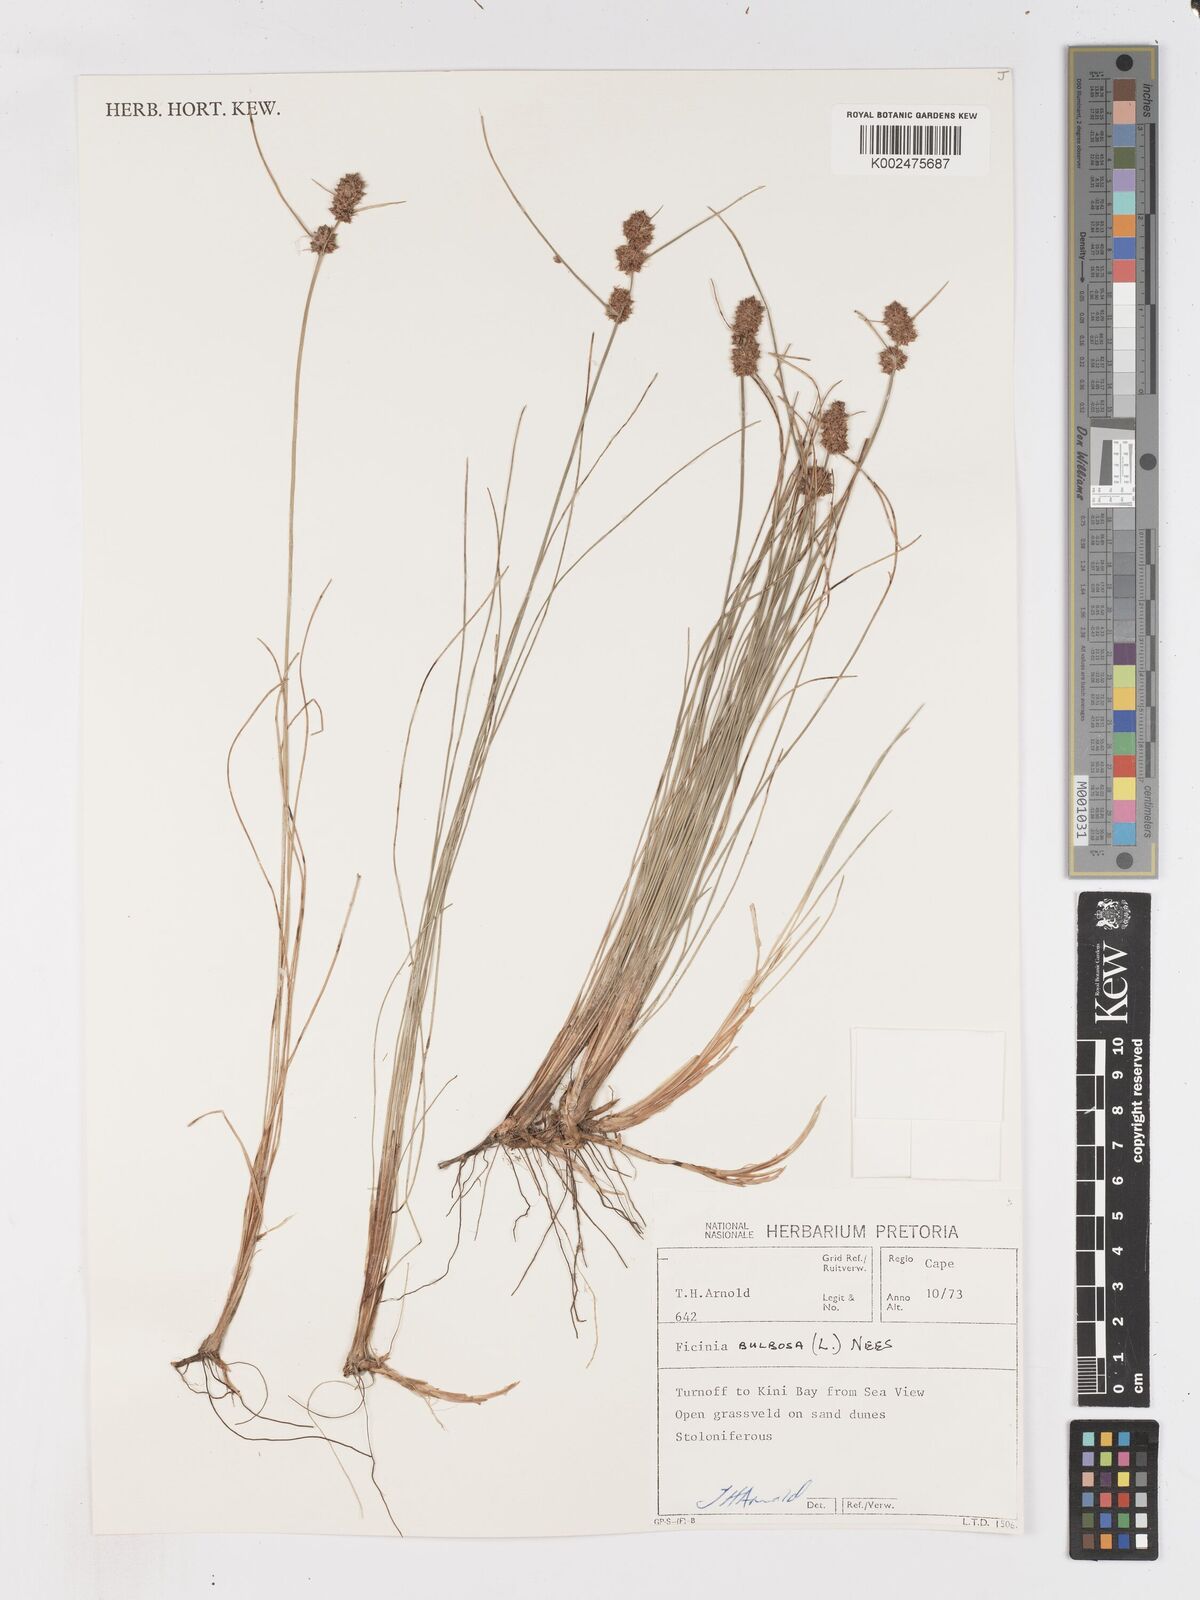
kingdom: Plantae
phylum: Tracheophyta
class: Liliopsida
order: Poales
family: Cyperaceae
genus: Ficinia
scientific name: Ficinia bulbosa
